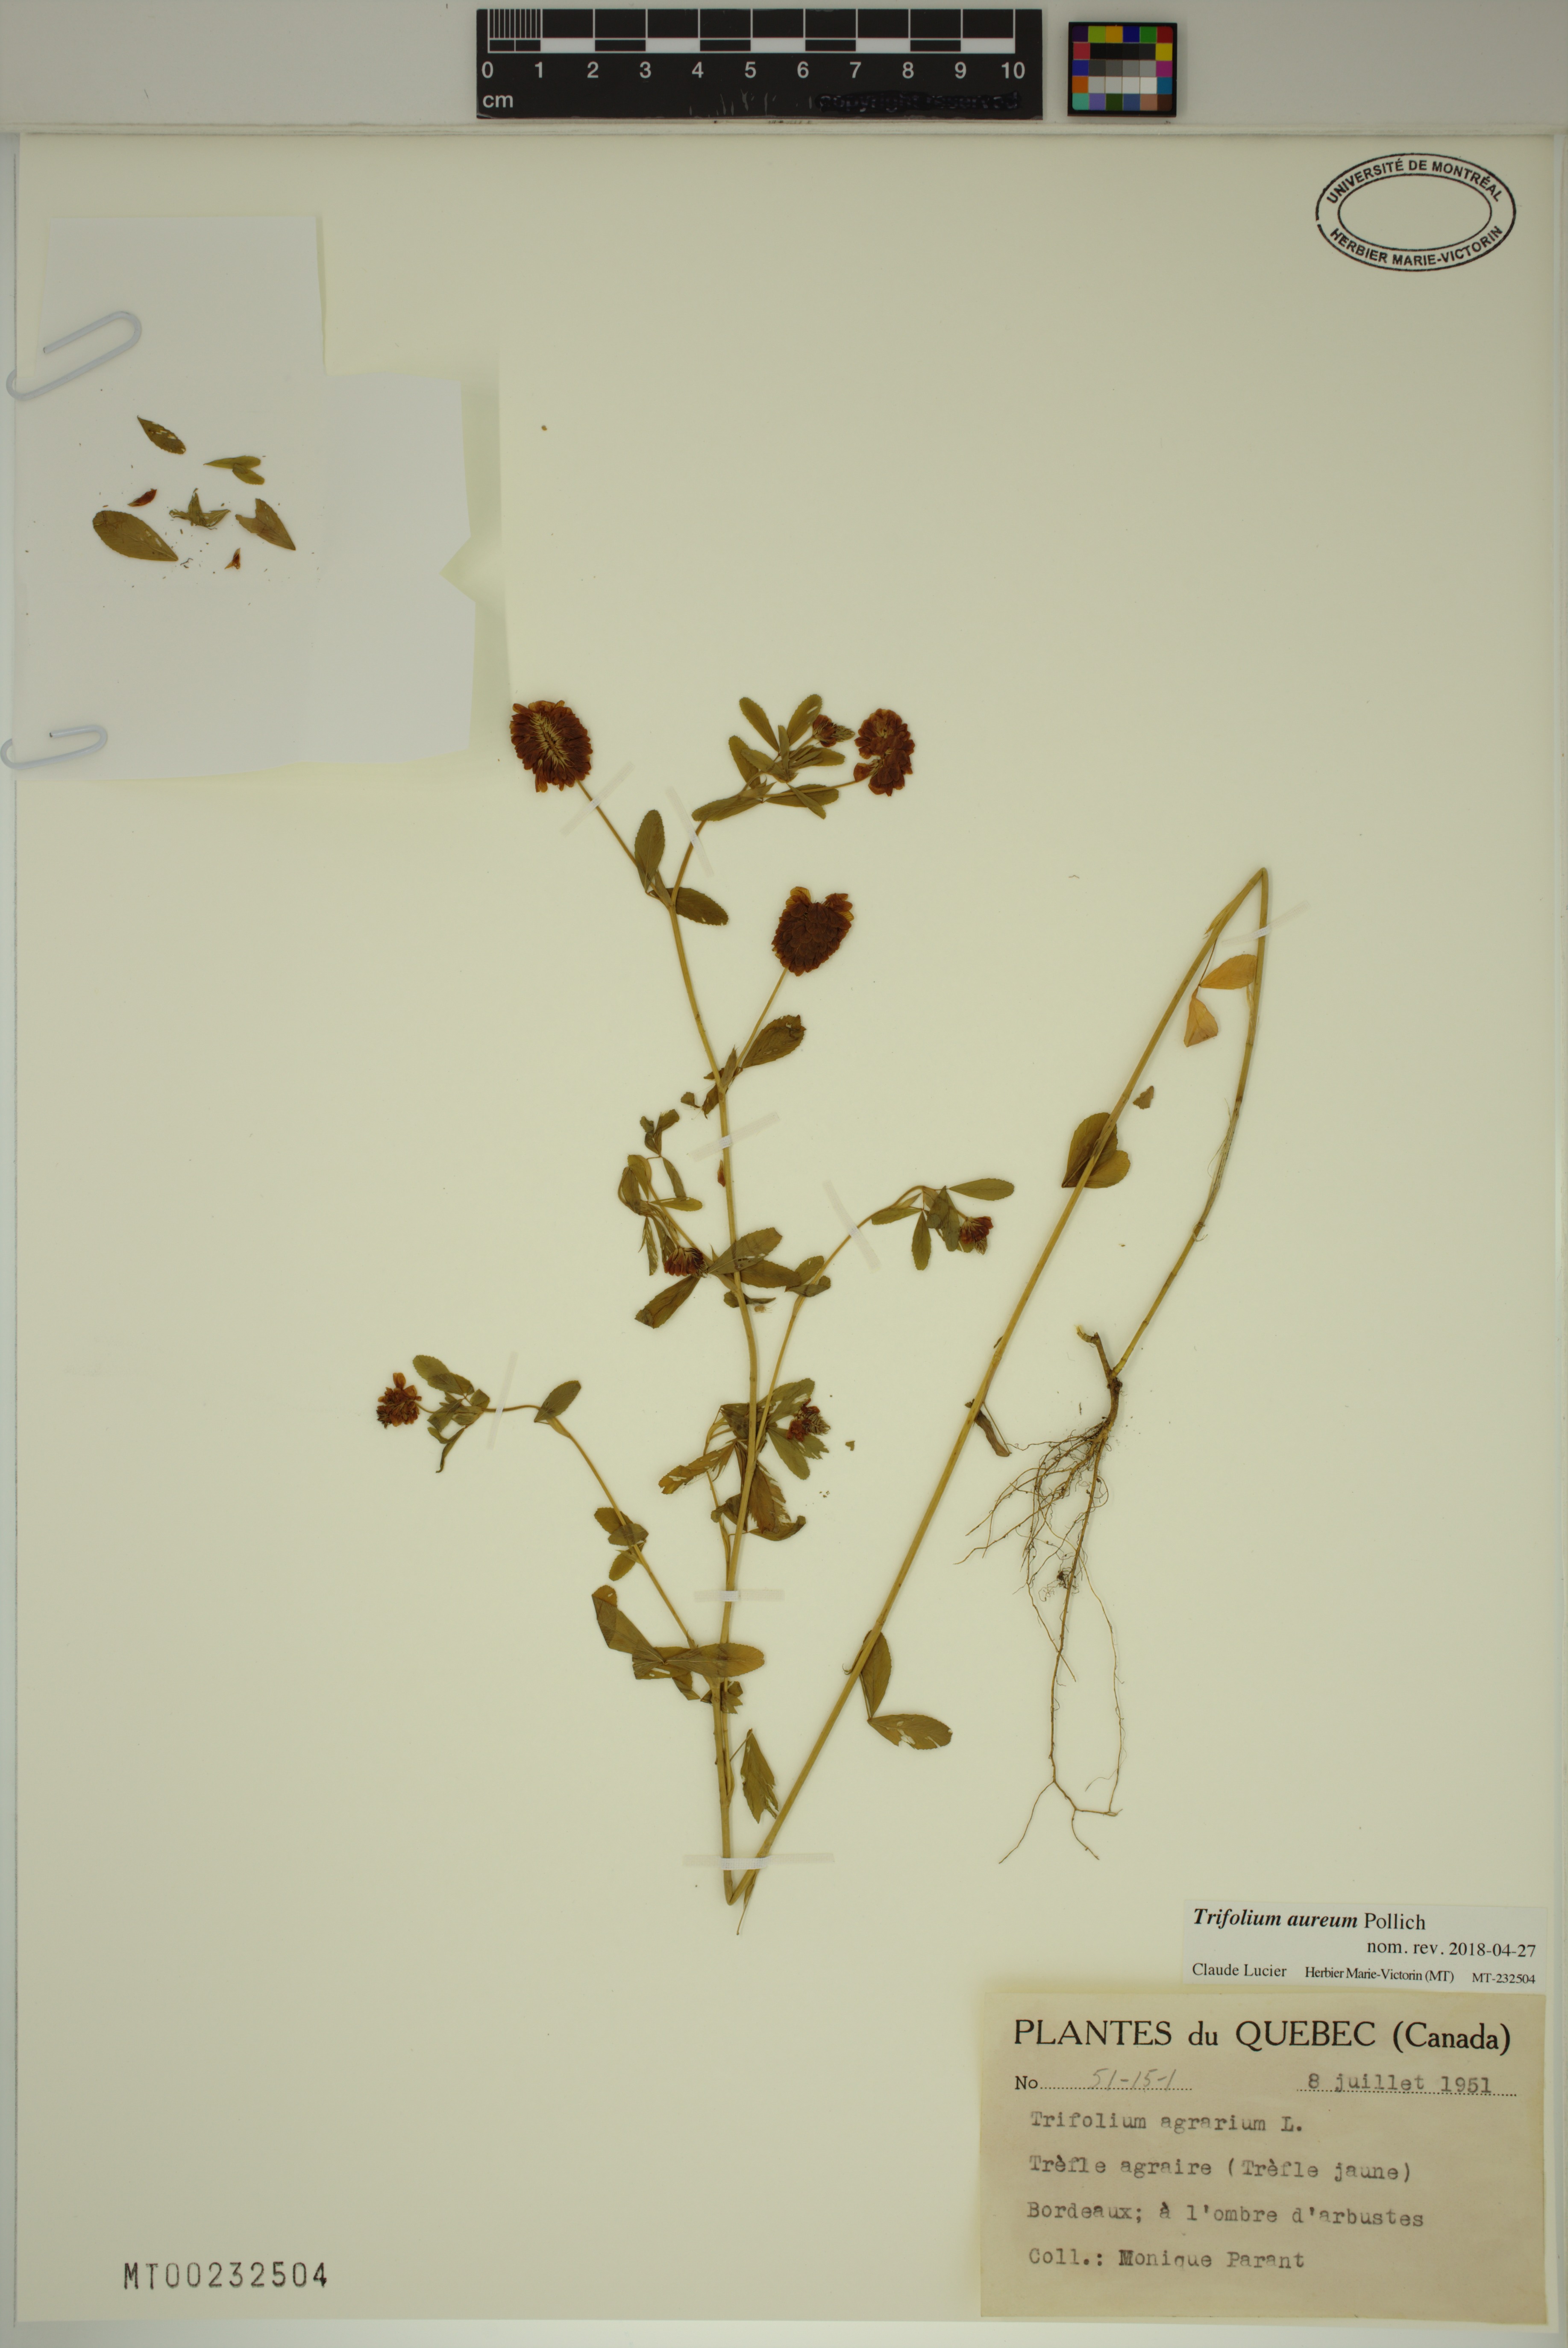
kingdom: Plantae
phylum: Tracheophyta
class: Magnoliopsida
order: Fabales
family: Fabaceae
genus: Trifolium
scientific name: Trifolium aureum
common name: Golden clover
